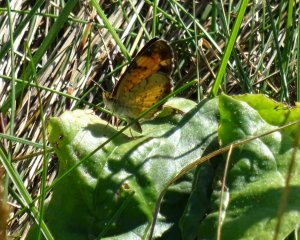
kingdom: Animalia
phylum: Arthropoda
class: Insecta
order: Lepidoptera
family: Nymphalidae
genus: Phyciodes
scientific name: Phyciodes
